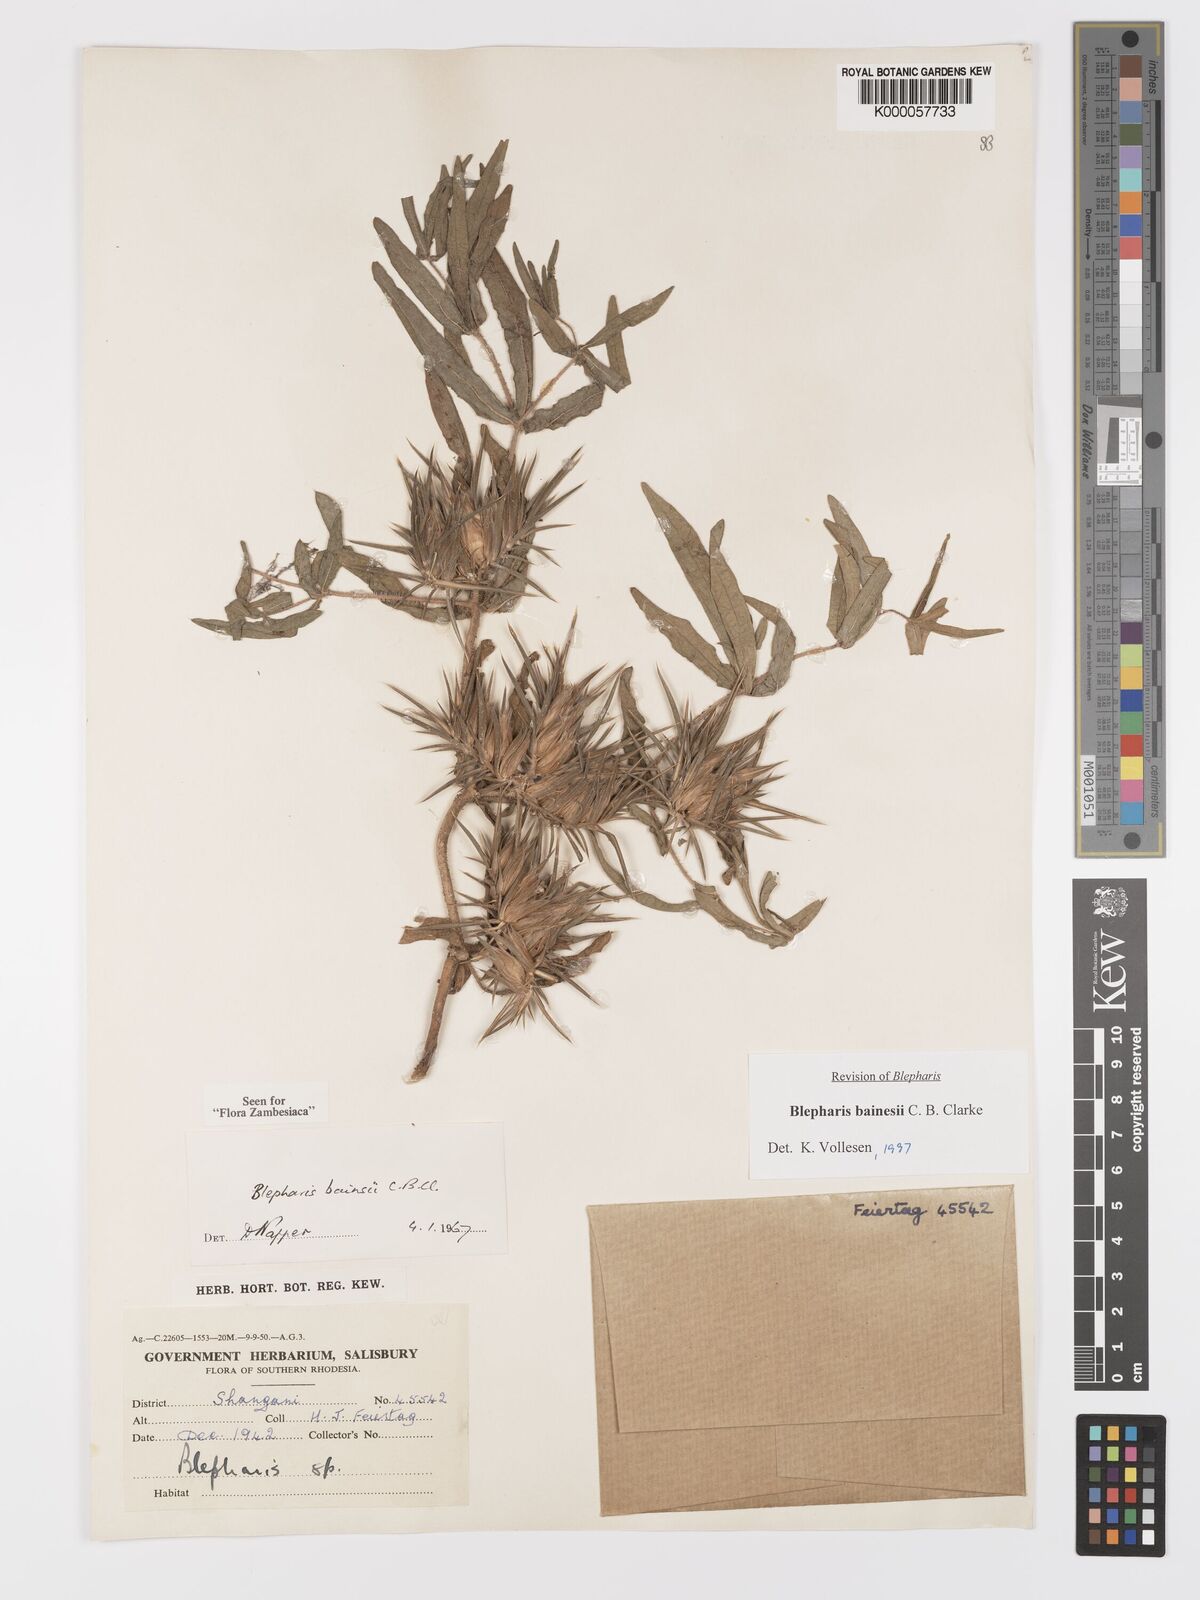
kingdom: Plantae
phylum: Tracheophyta
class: Magnoliopsida
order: Lamiales
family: Acanthaceae
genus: Blepharis
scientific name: Blepharis bainesii
